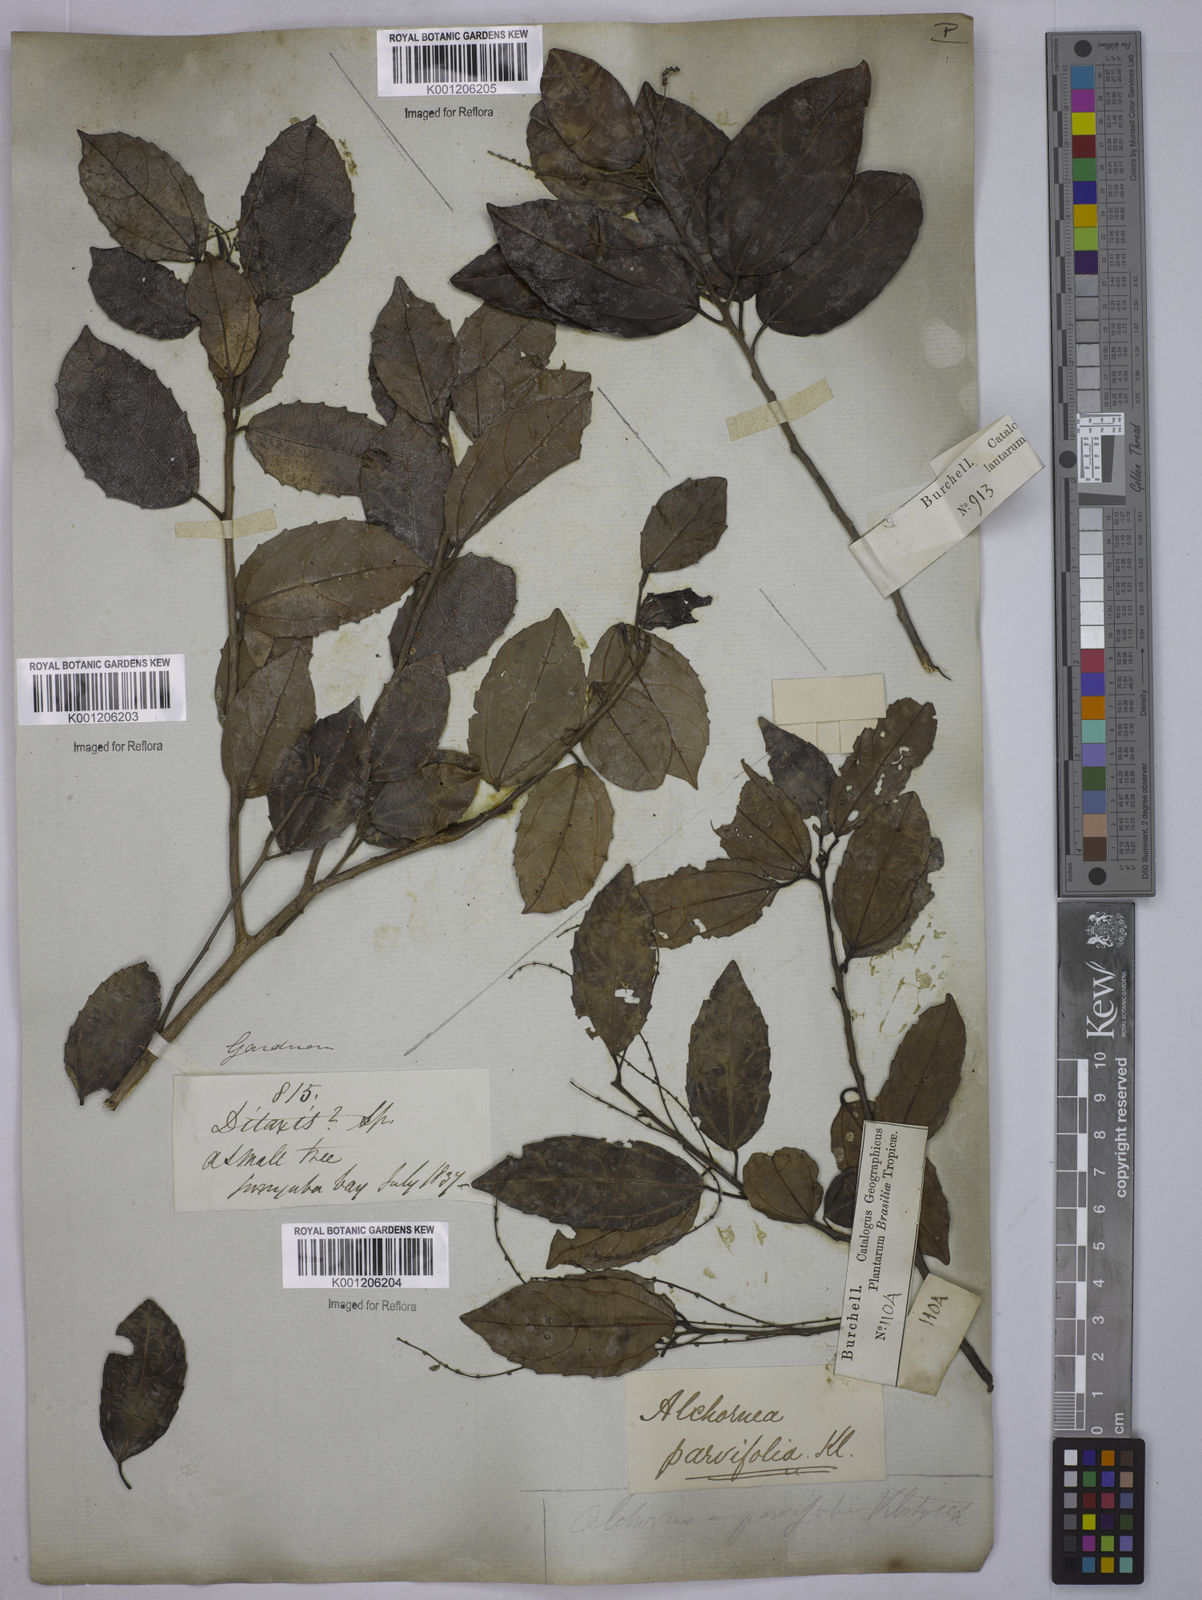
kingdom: Plantae
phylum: Tracheophyta
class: Magnoliopsida
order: Malpighiales
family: Euphorbiaceae
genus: Alchornea
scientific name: Alchornea
